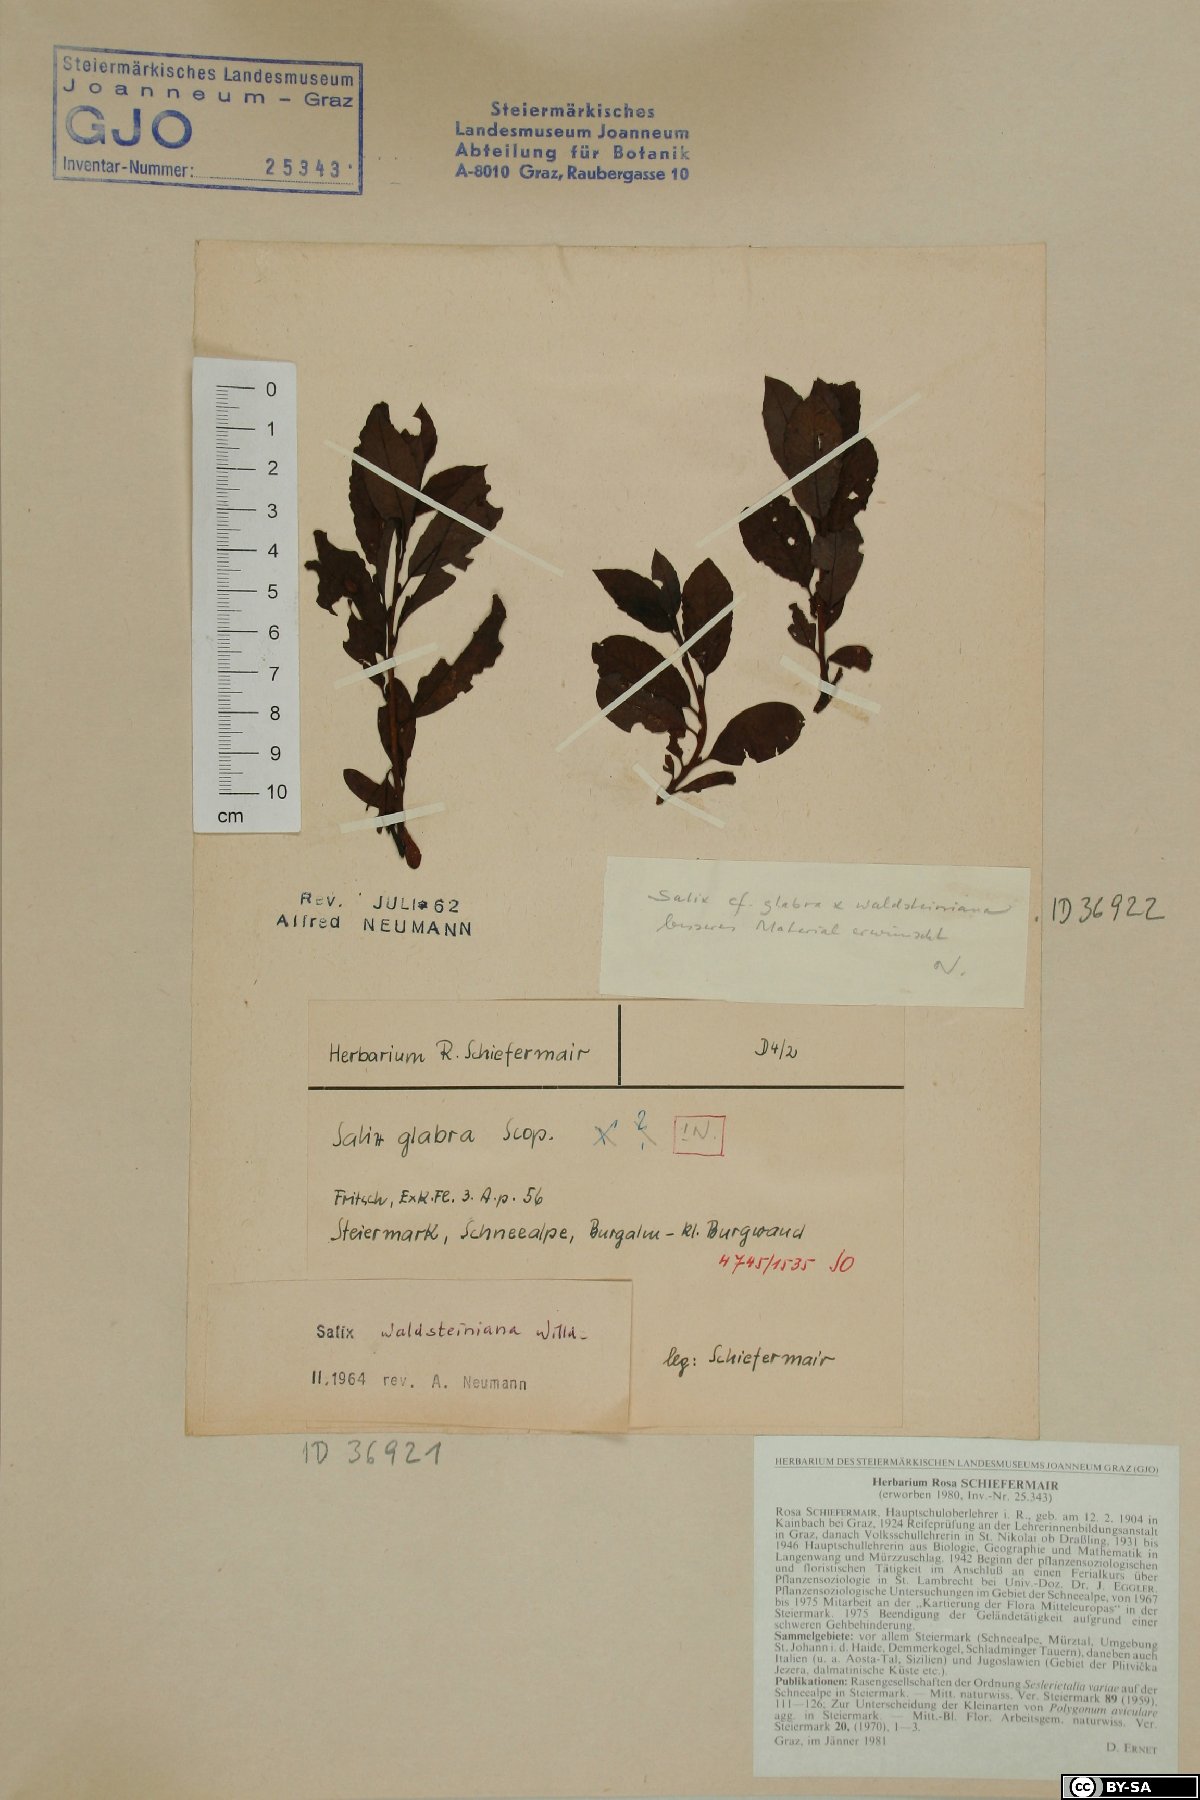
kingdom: Plantae
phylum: Tracheophyta
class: Magnoliopsida
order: Malpighiales
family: Salicaceae
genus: Salix
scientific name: Salix waldsteiniana
